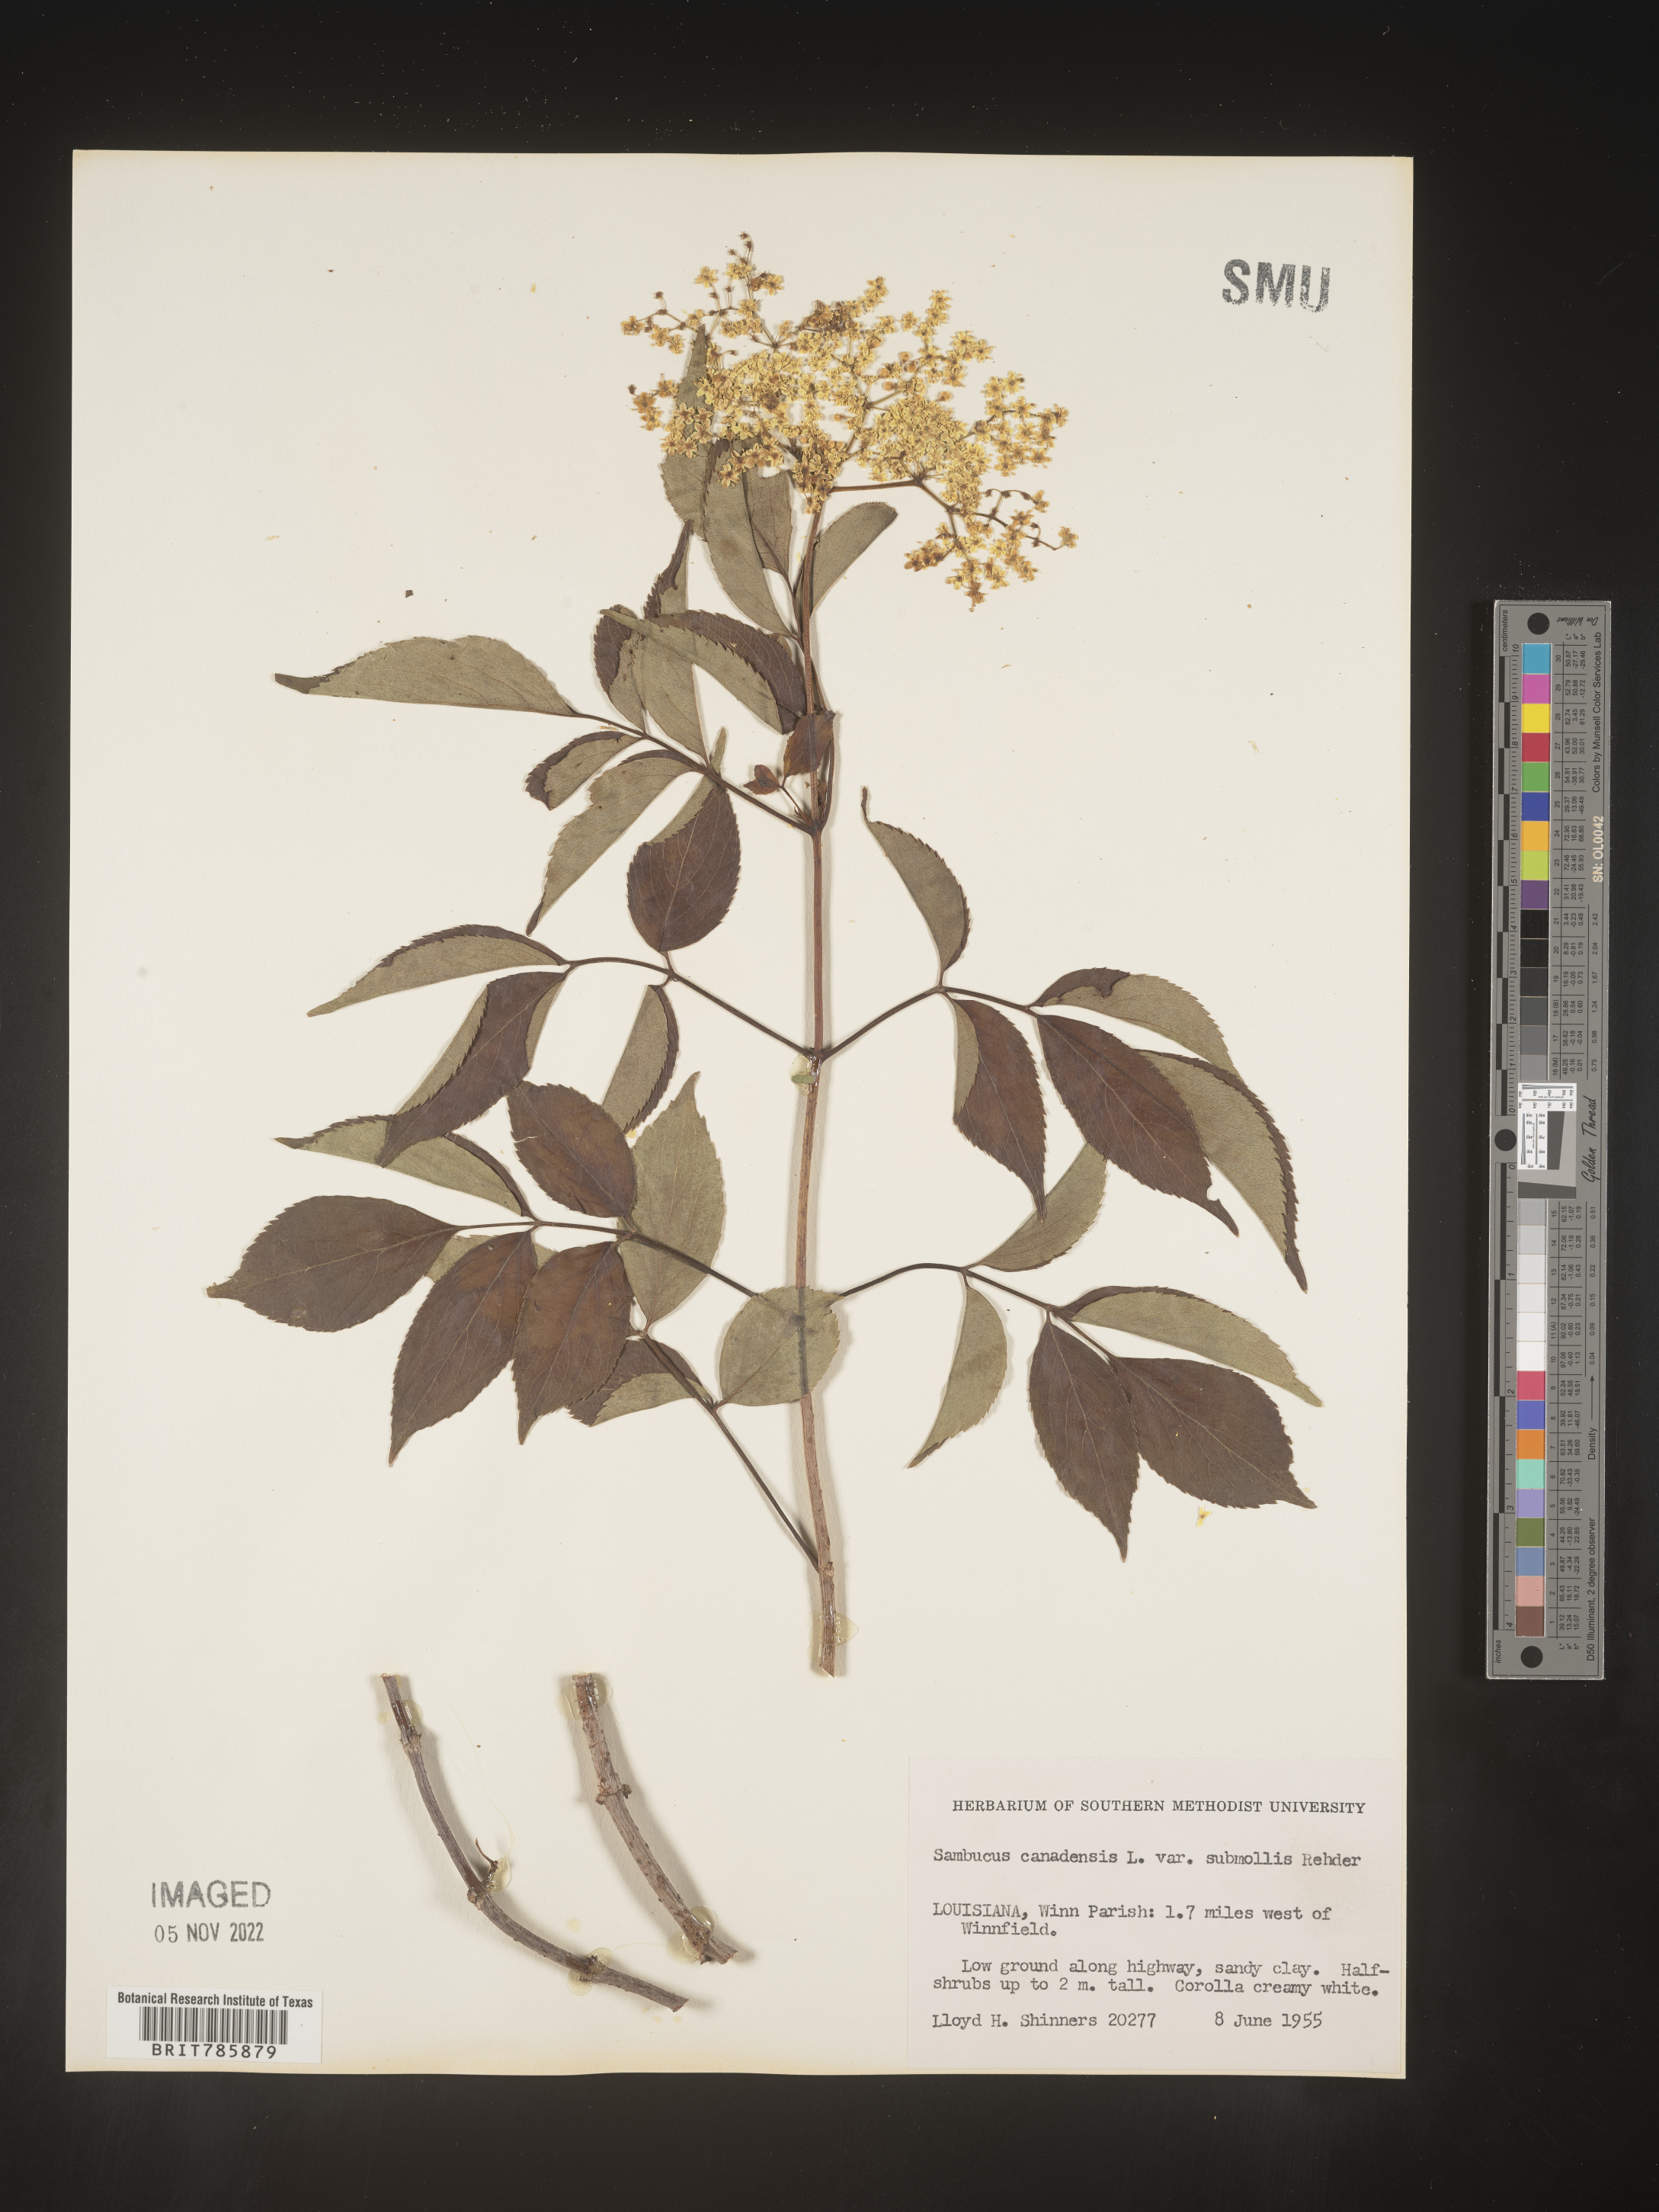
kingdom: Plantae
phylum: Tracheophyta
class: Magnoliopsida
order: Dipsacales
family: Viburnaceae
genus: Sambucus
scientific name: Sambucus nigra
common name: Elder
